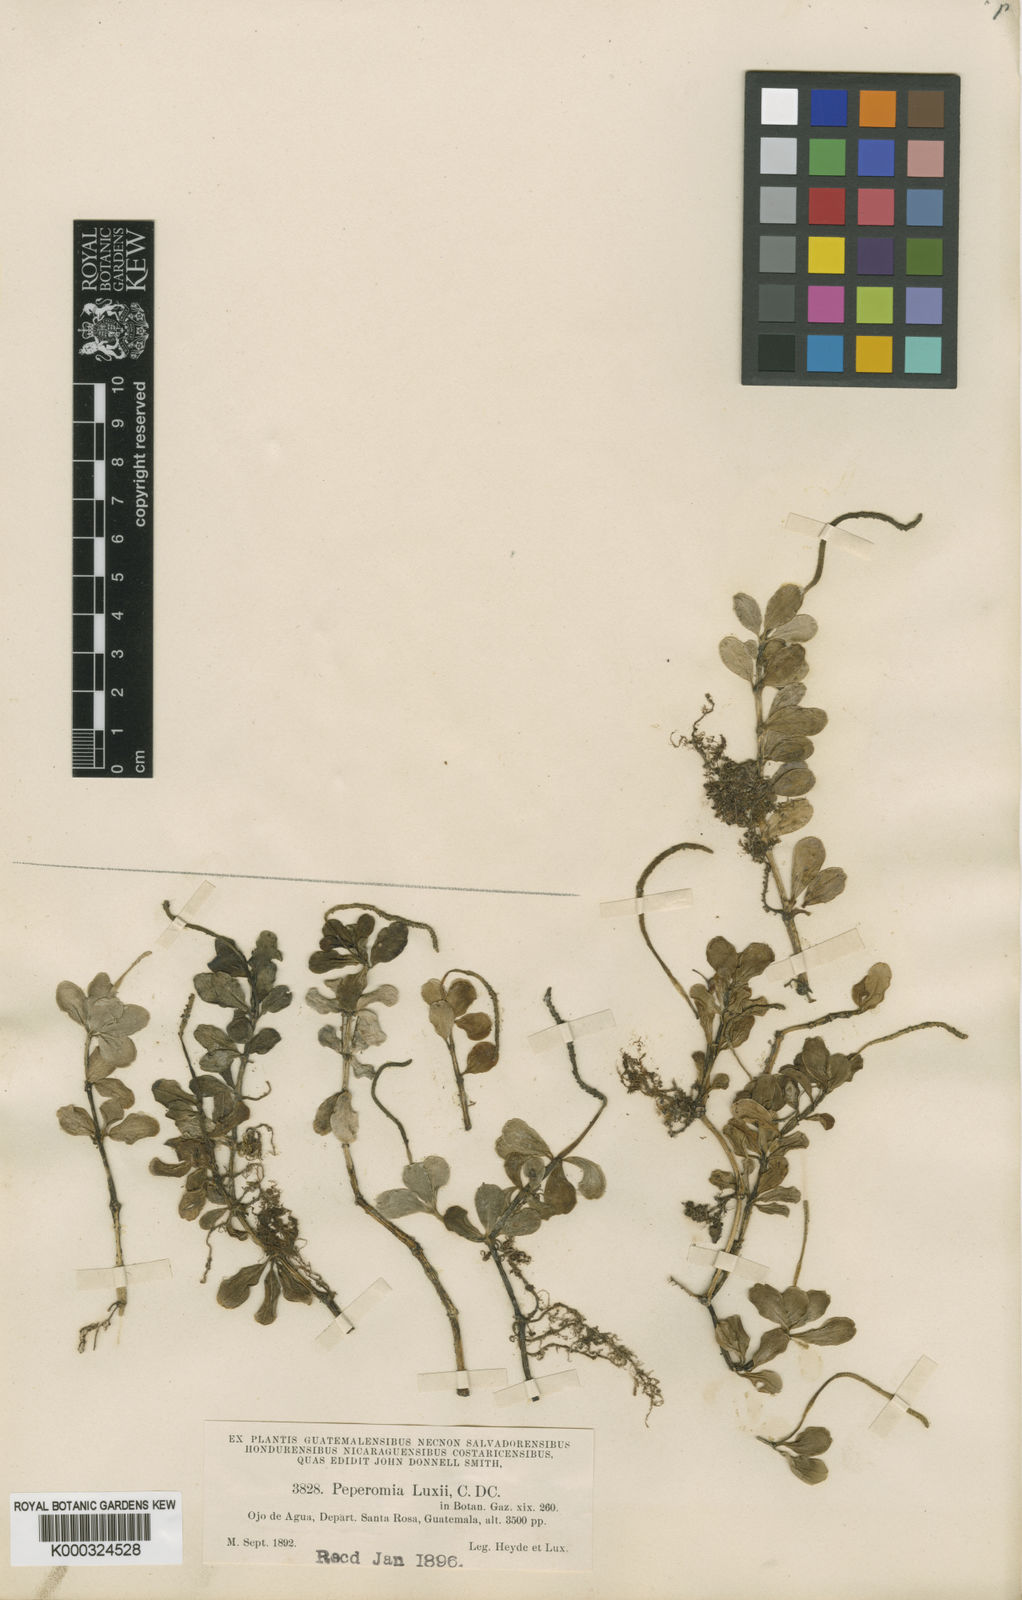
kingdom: Plantae
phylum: Tracheophyta
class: Magnoliopsida
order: Piperales
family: Piperaceae
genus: Peperomia
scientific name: Peperomia quadrifolia
